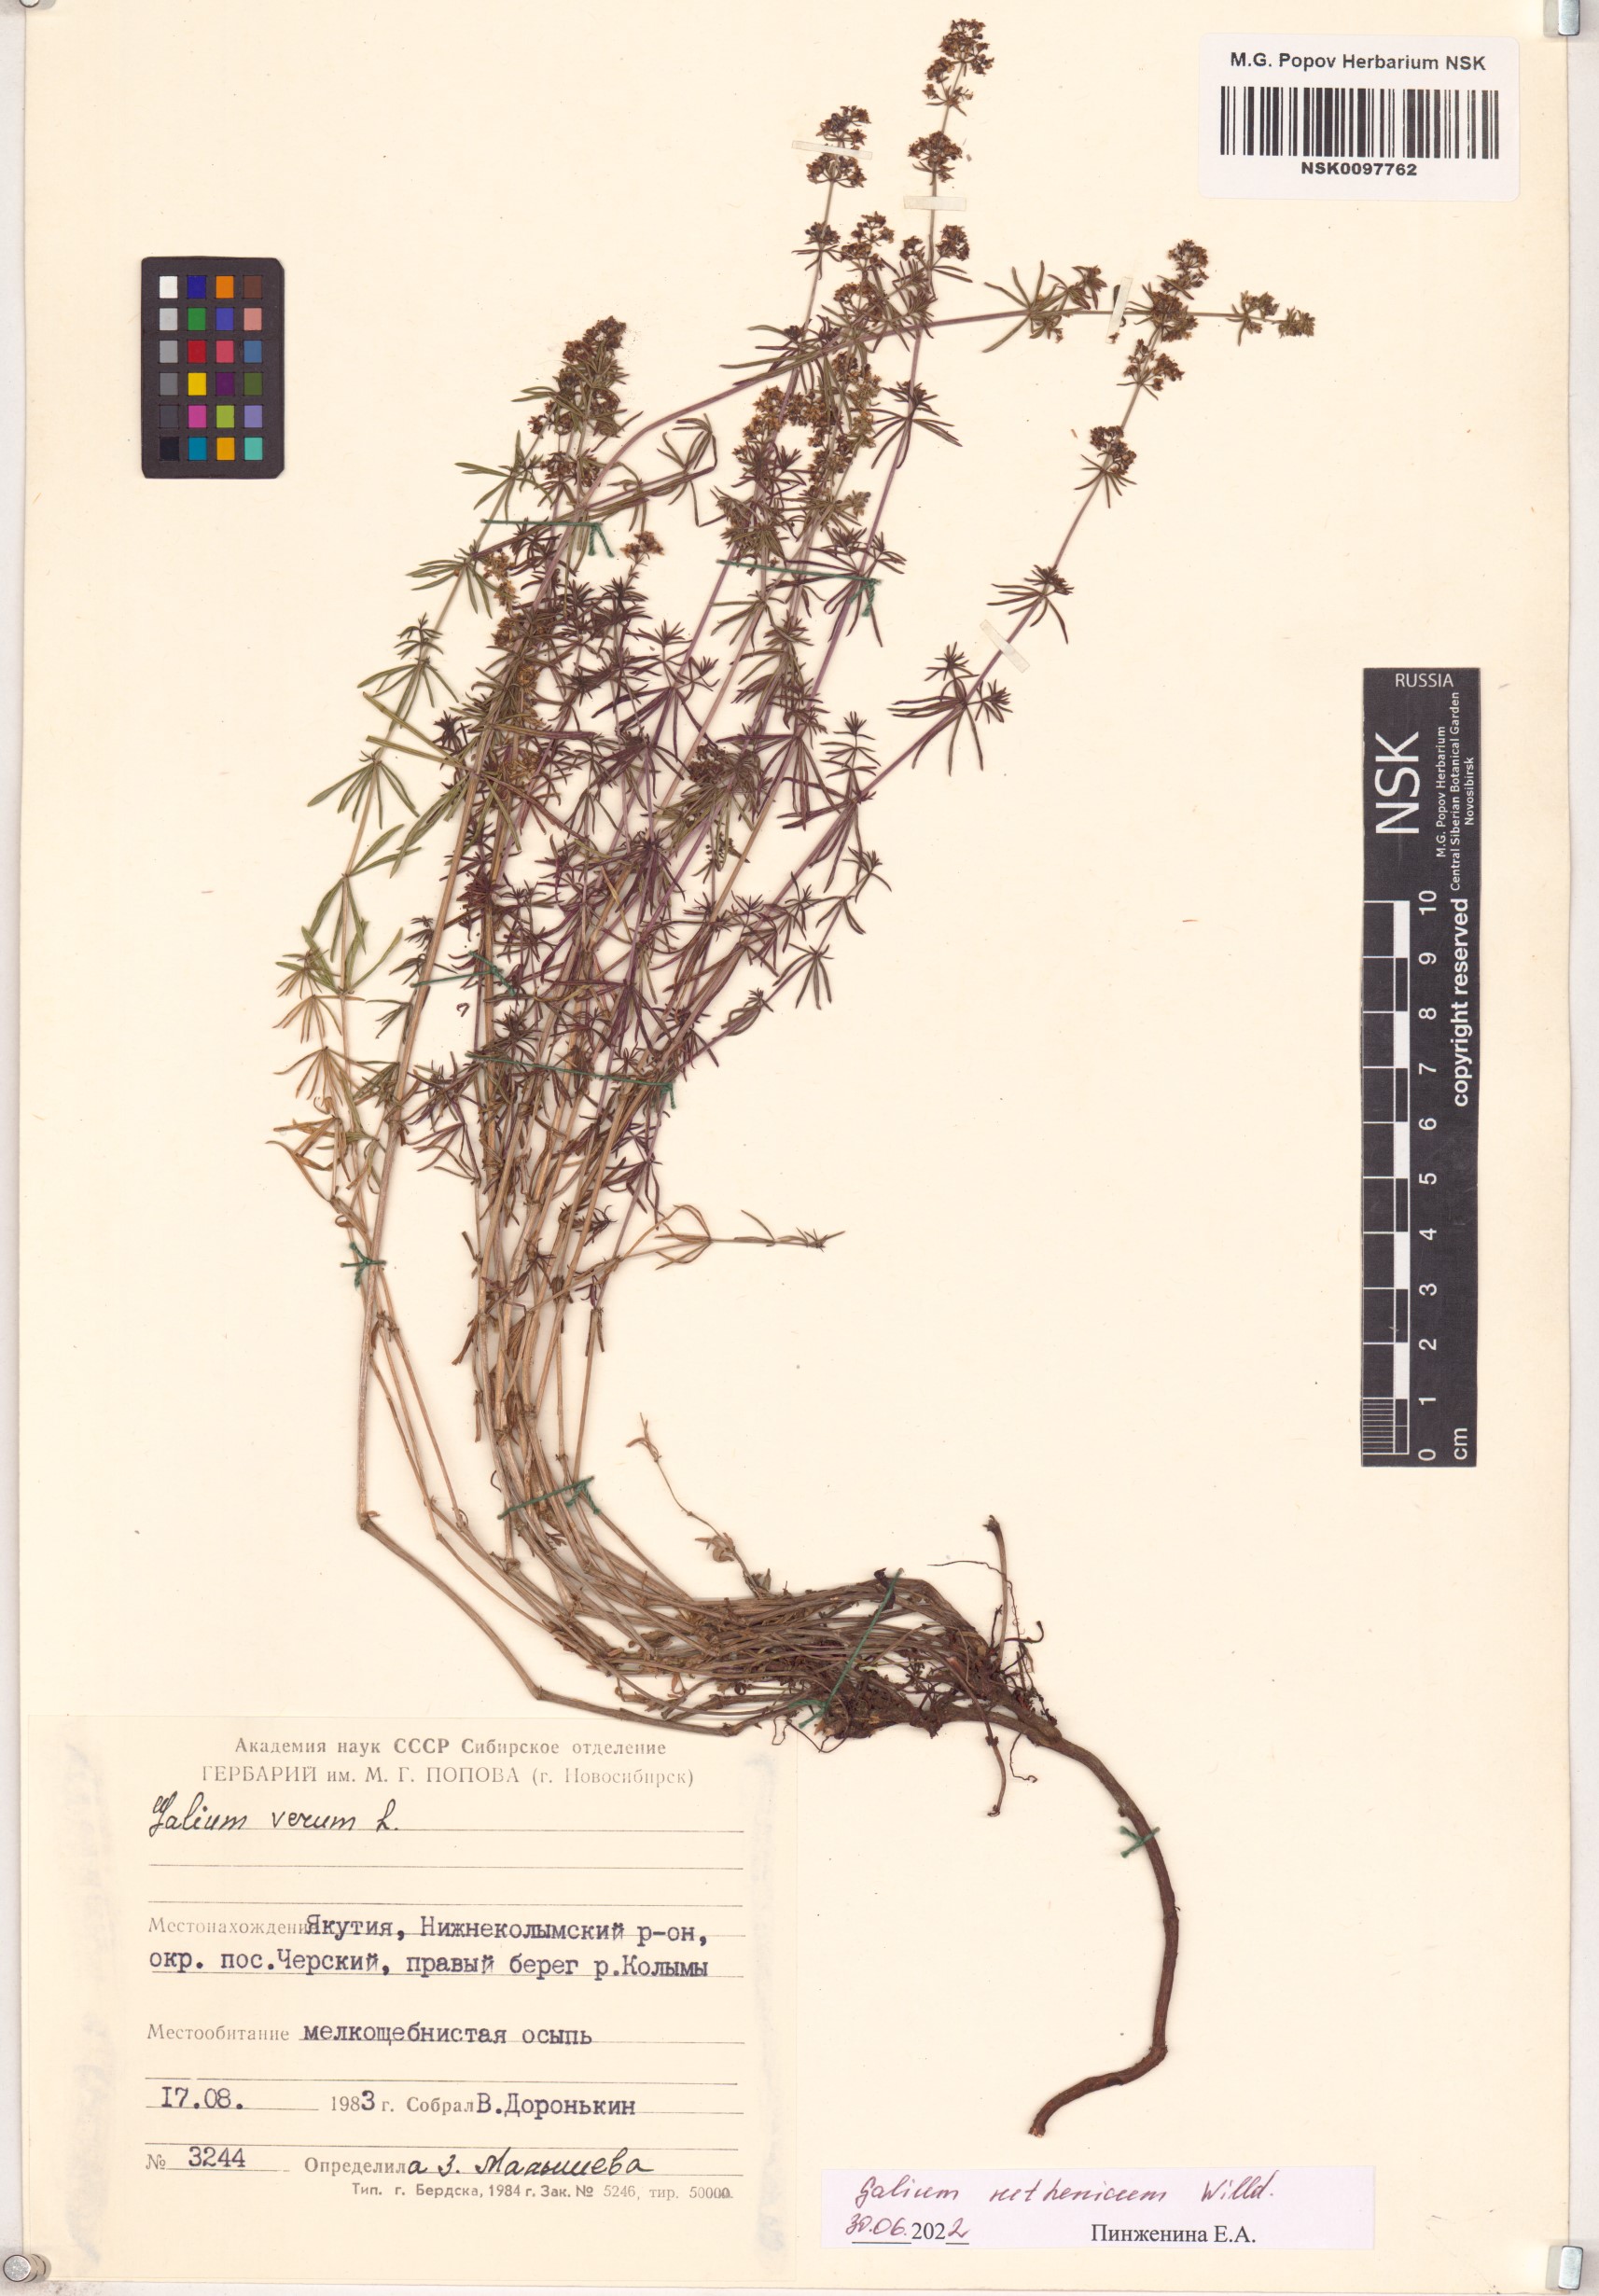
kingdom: Plantae
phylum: Tracheophyta
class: Magnoliopsida
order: Gentianales
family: Rubiaceae
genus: Galium
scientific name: Galium verum
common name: Lady's bedstraw
